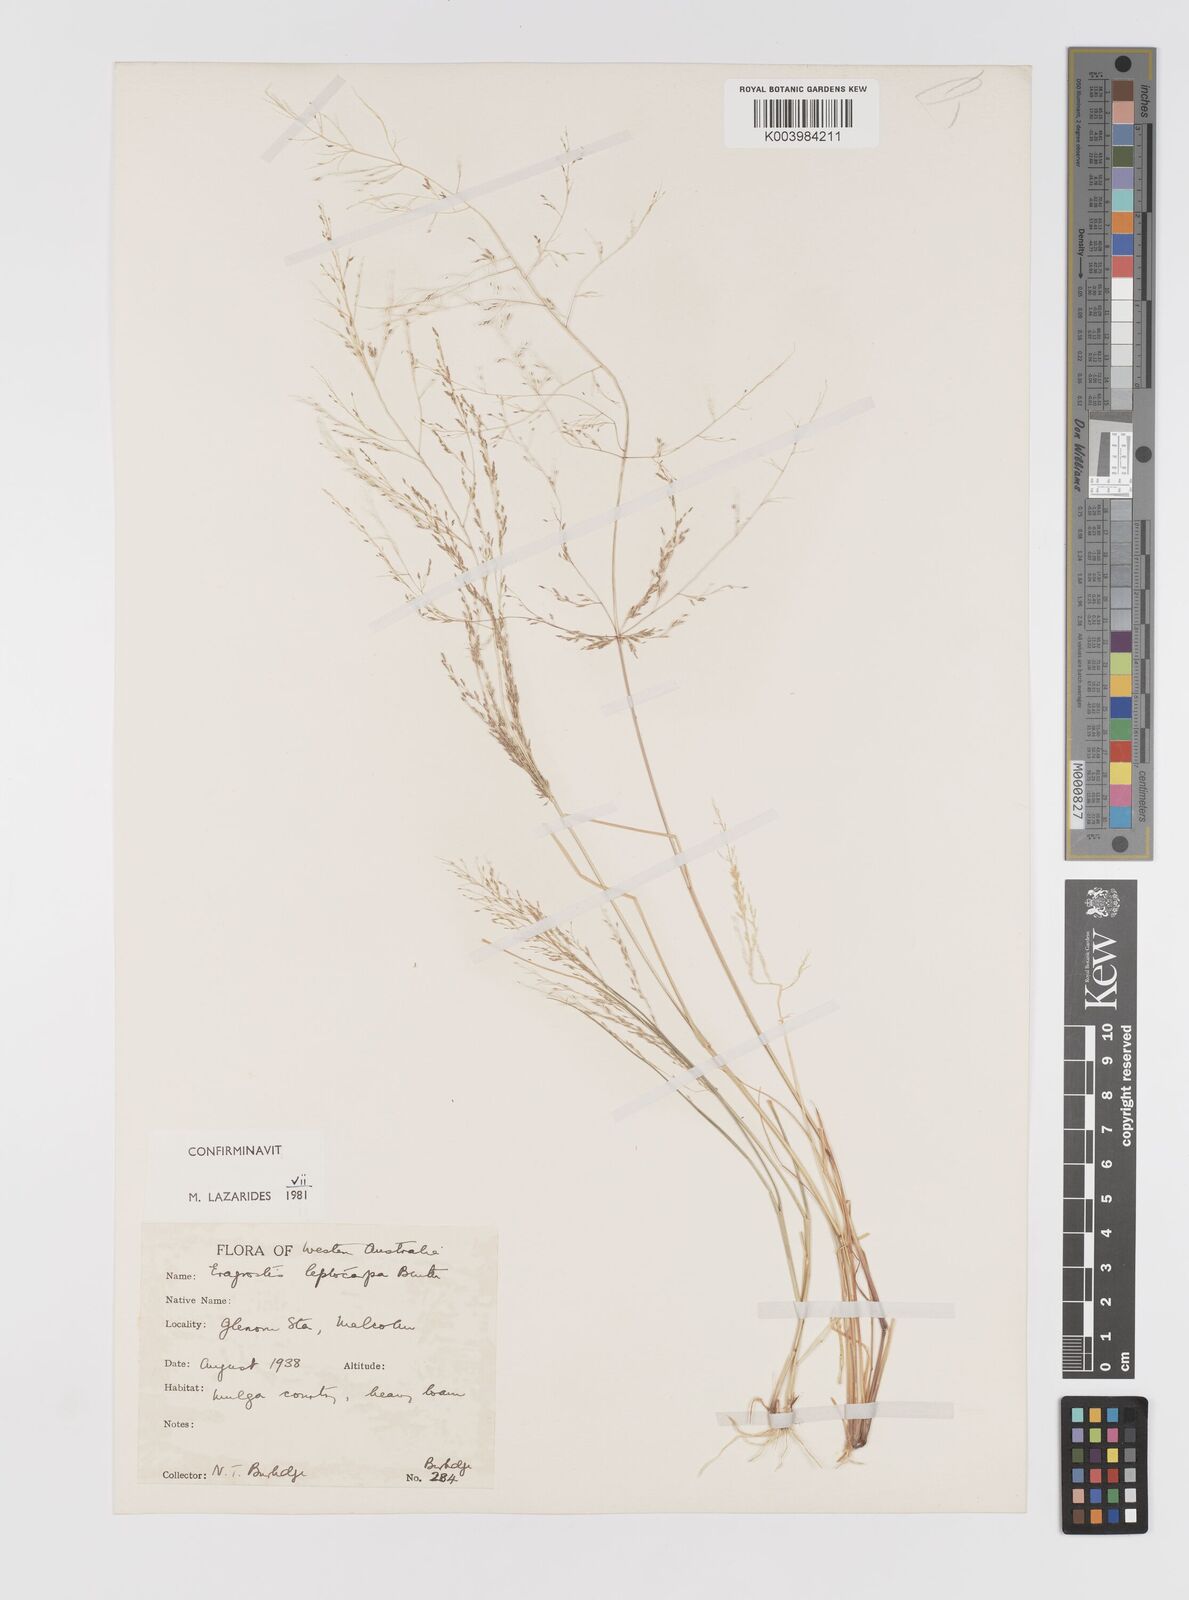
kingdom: Plantae
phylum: Tracheophyta
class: Liliopsida
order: Poales
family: Poaceae
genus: Eragrostis
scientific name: Eragrostis leptocarpa
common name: Drooping love grass
